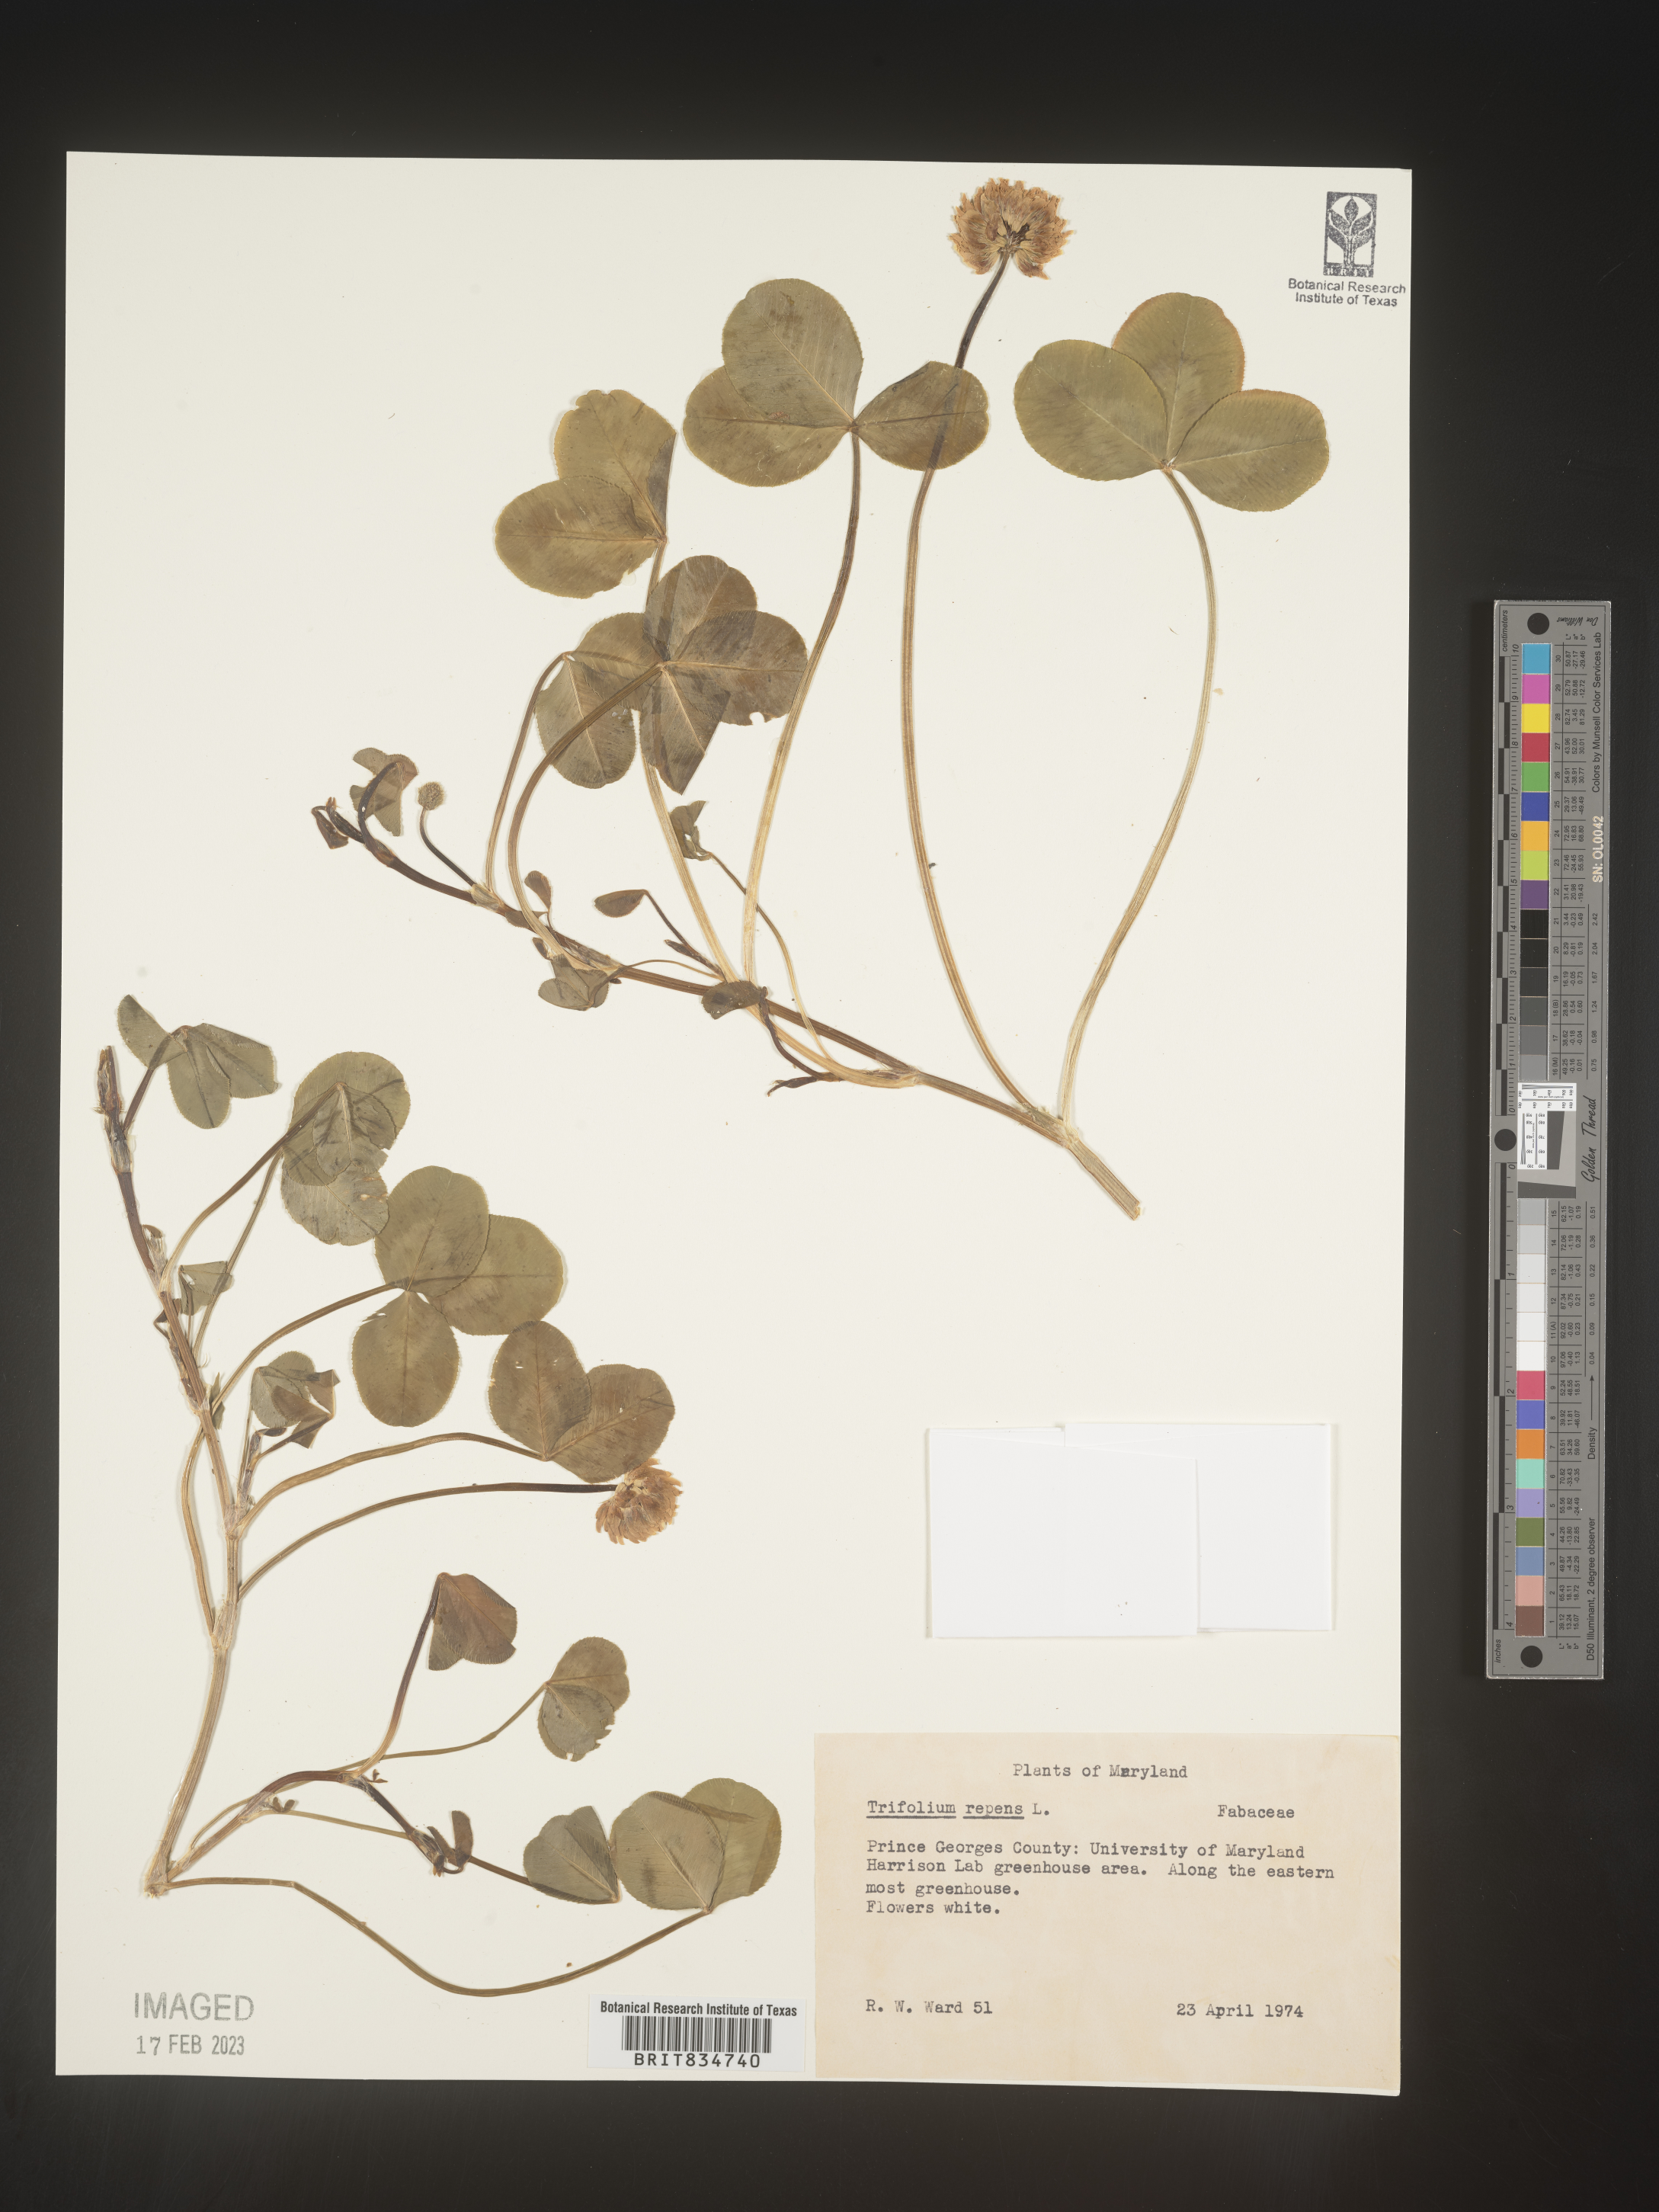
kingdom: Plantae
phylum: Tracheophyta
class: Magnoliopsida
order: Fabales
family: Fabaceae
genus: Trifolium
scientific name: Trifolium repens
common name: White clover
